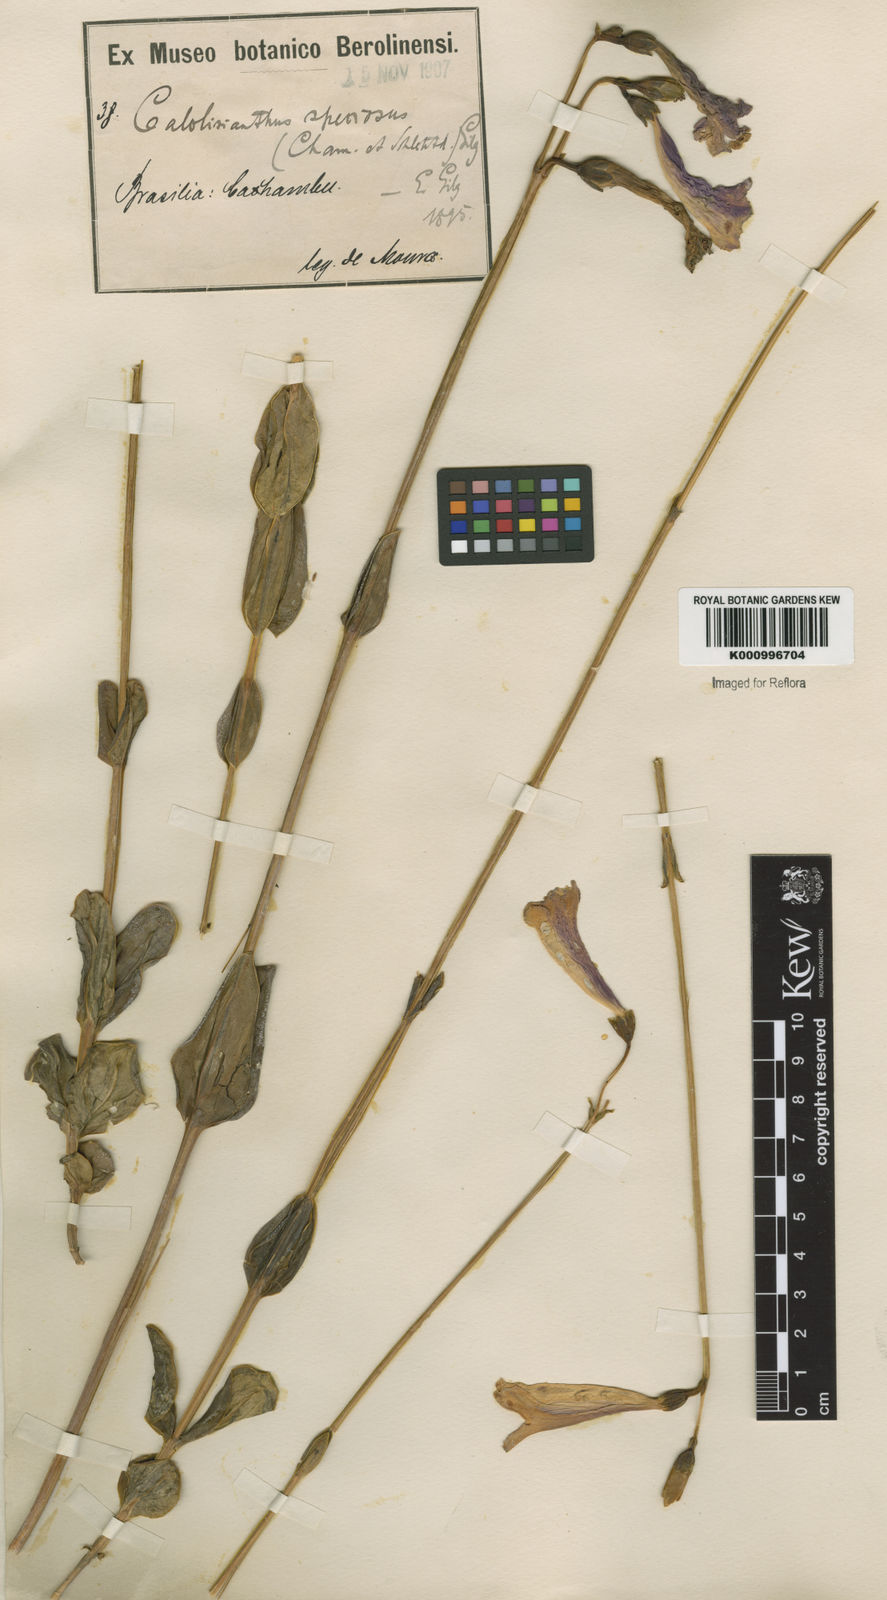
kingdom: Plantae
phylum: Tracheophyta
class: Magnoliopsida
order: Gentianales
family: Gentianaceae
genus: Calolisianthus
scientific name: Calolisianthus speciosus
